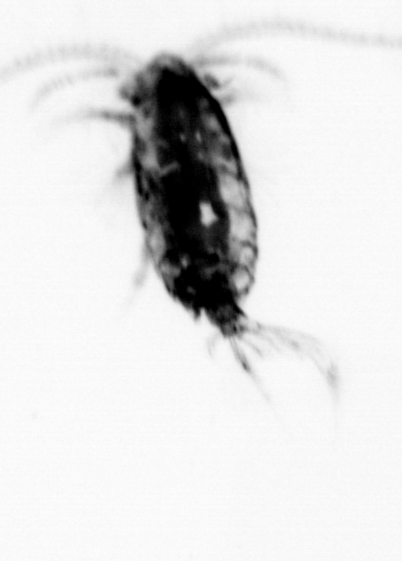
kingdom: Animalia
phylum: Arthropoda
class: Copepoda
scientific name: Copepoda
